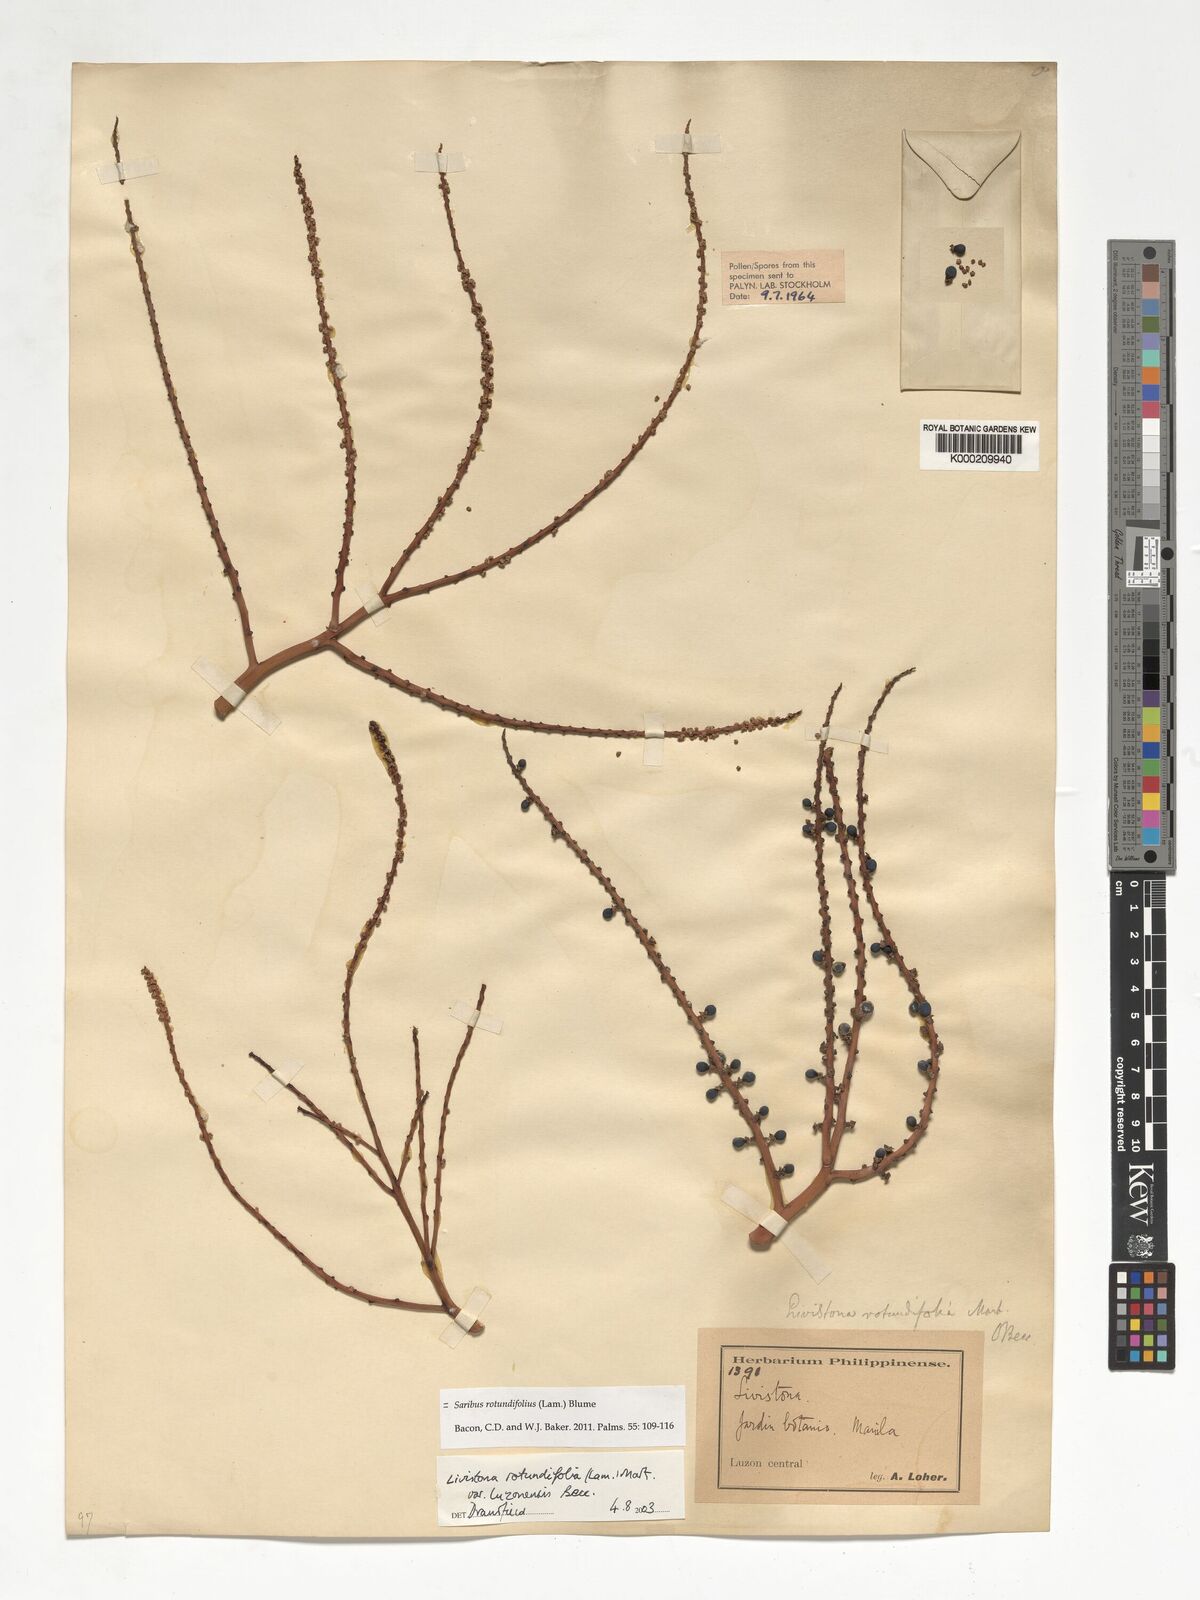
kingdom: Plantae
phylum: Tracheophyta
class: Liliopsida
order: Arecales
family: Arecaceae
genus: Saribus
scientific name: Saribus rotundifolius
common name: Palm
